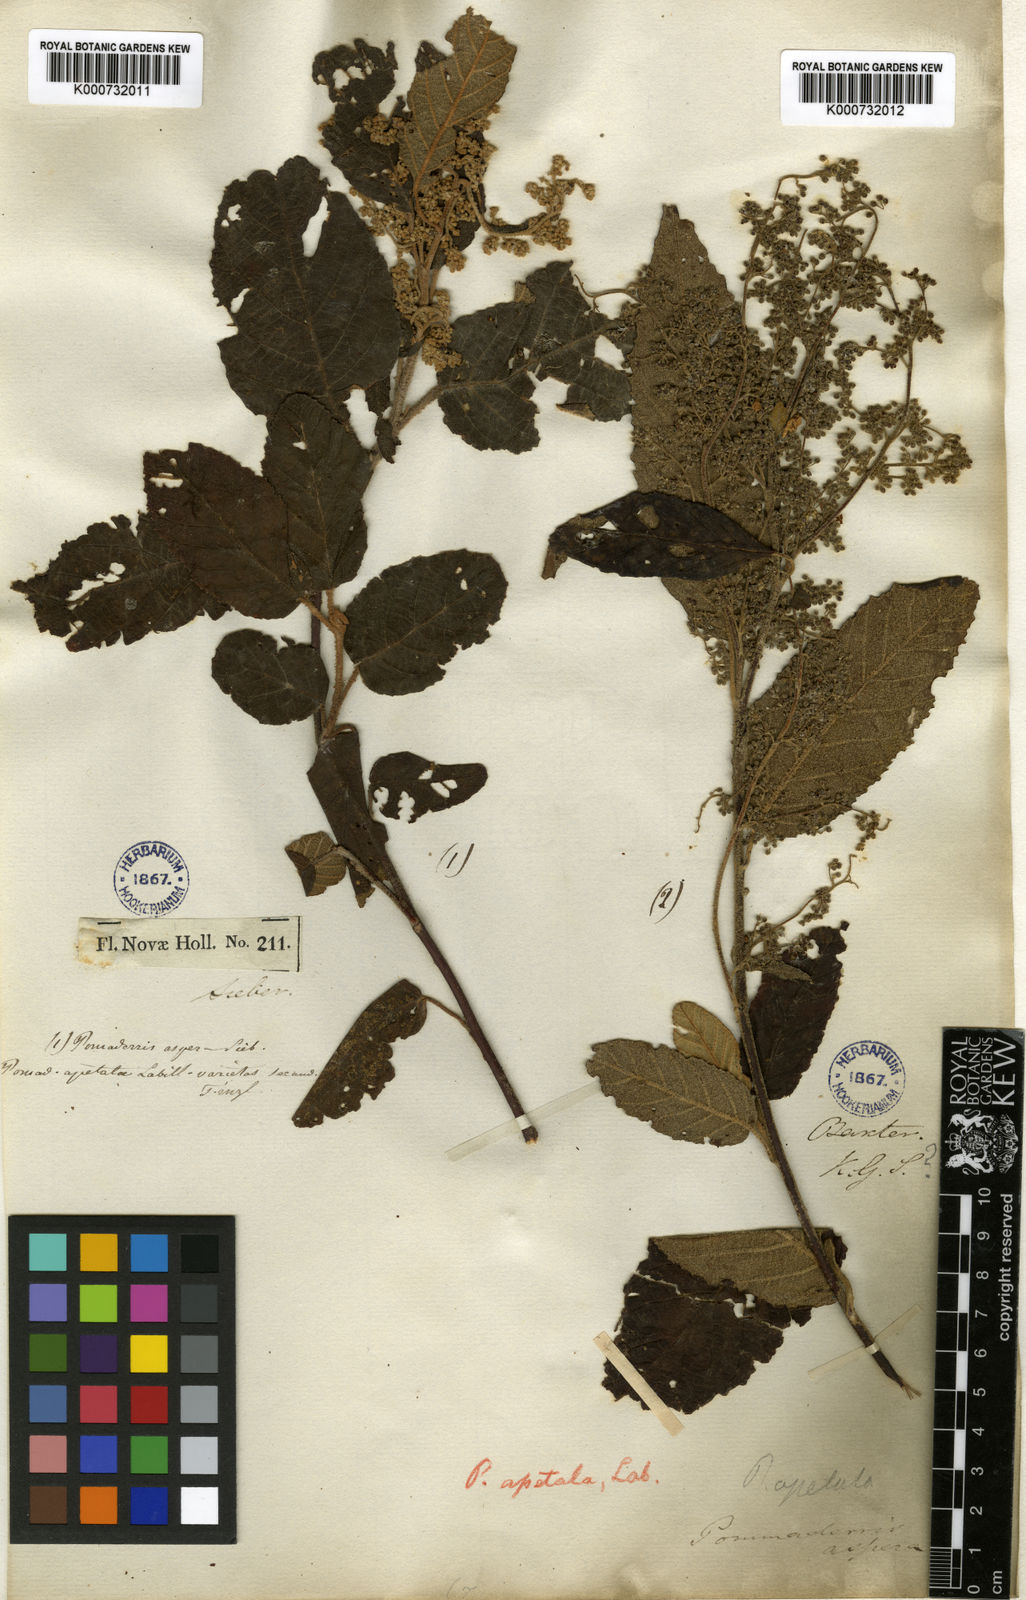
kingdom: Plantae
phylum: Tracheophyta
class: Magnoliopsida
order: Rosales
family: Rhamnaceae
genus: Pomaderris
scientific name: Pomaderris aspera
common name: Hazel pomaderris
